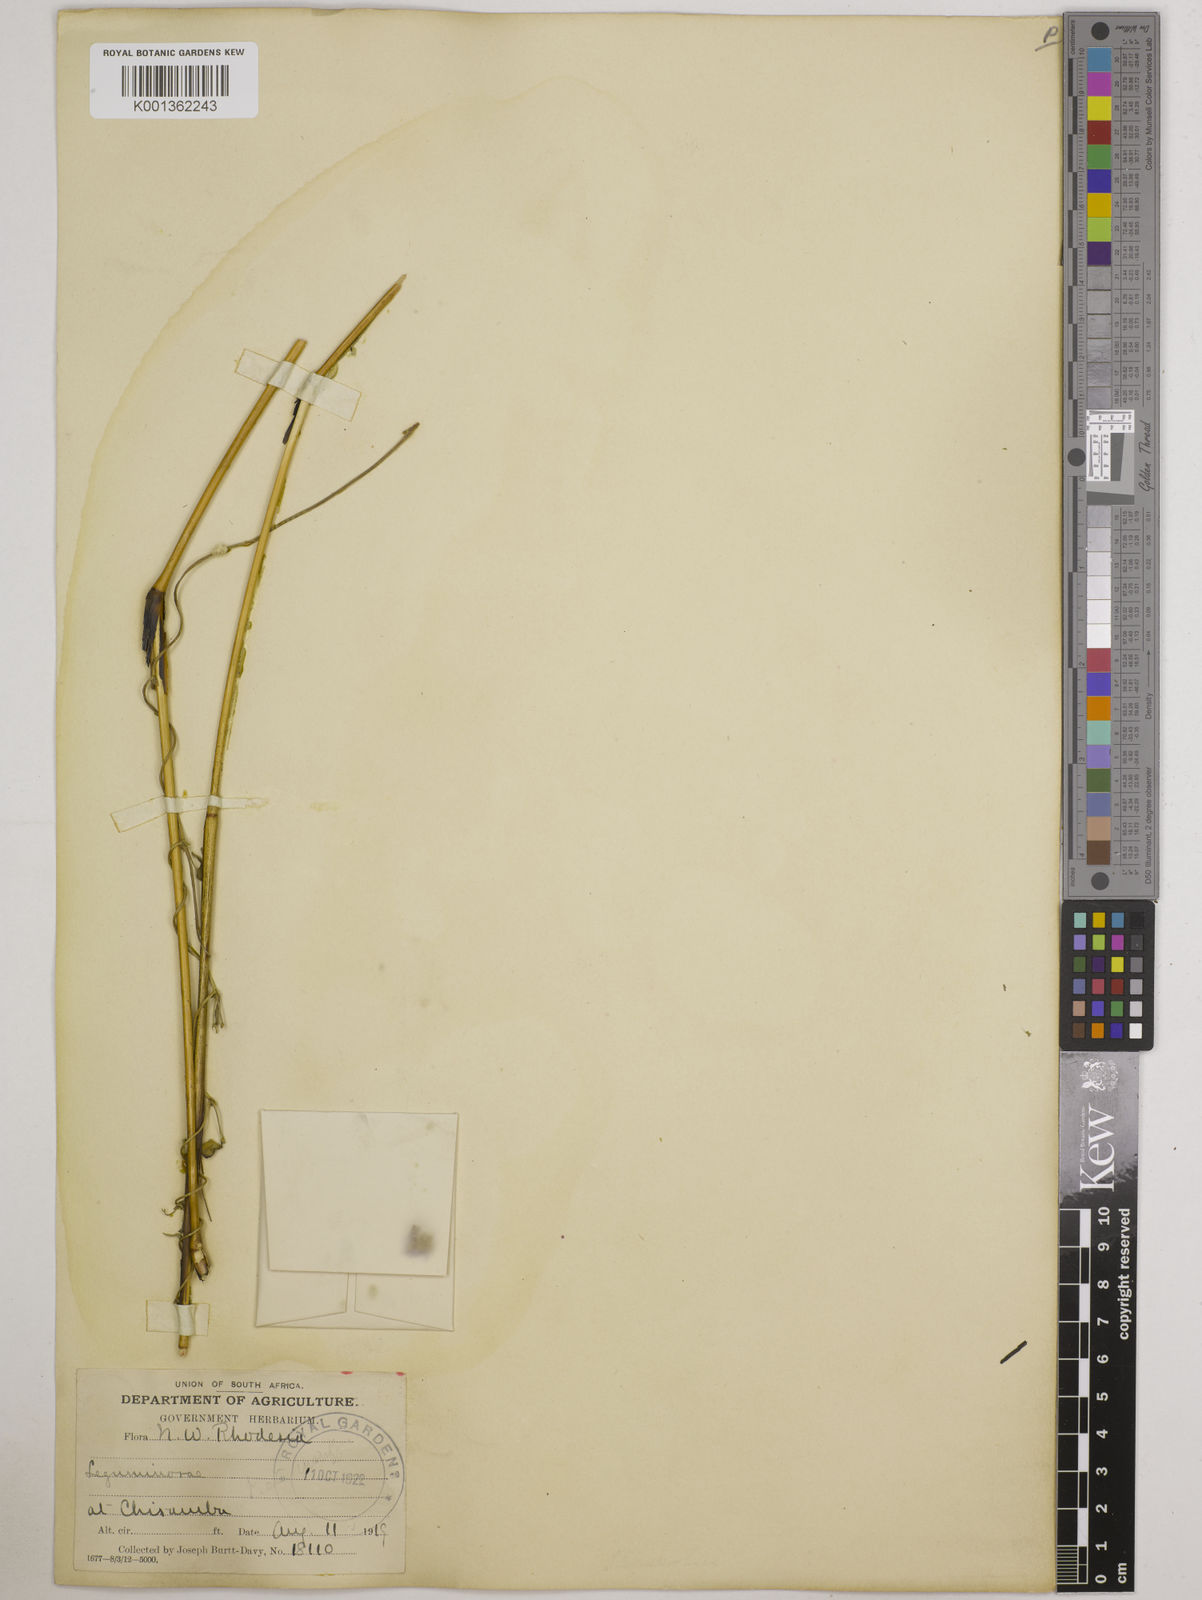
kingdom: Plantae
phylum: Tracheophyta
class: Magnoliopsida
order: Fabales
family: Fabaceae
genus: Wajira
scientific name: Wajira grahamiana
